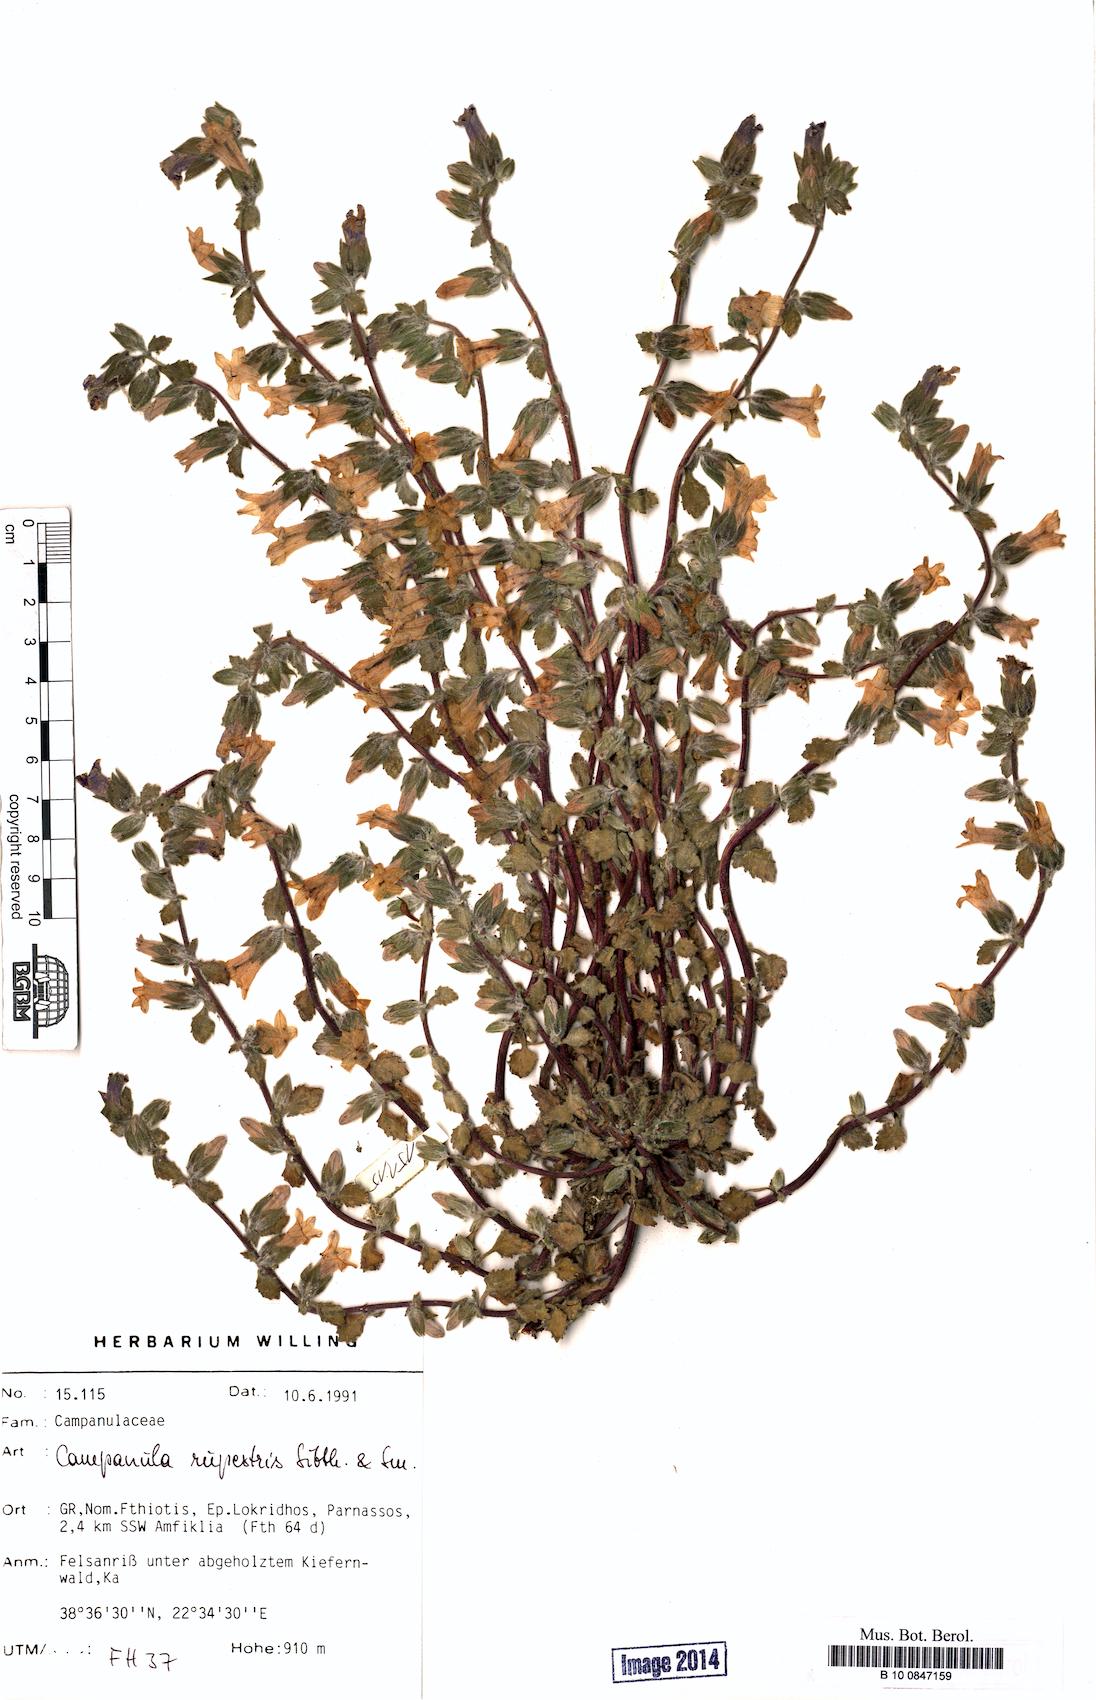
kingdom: Plantae
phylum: Tracheophyta
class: Magnoliopsida
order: Asterales
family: Campanulaceae
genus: Campanula
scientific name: Campanula rupestris
